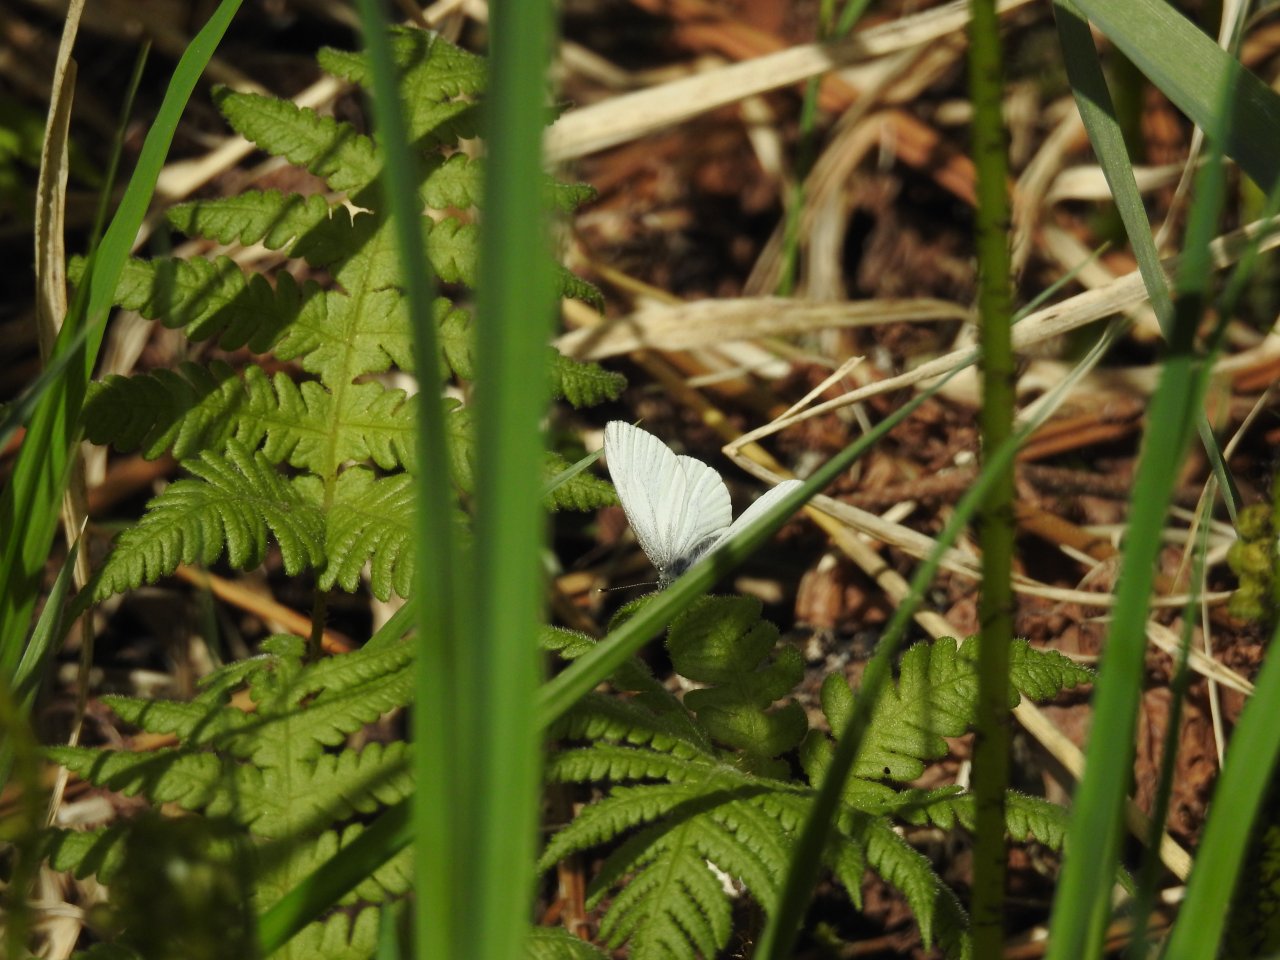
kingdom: Animalia
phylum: Arthropoda
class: Insecta
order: Lepidoptera
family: Pieridae
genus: Pieris
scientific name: Pieris oleracea
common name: Mustard White
